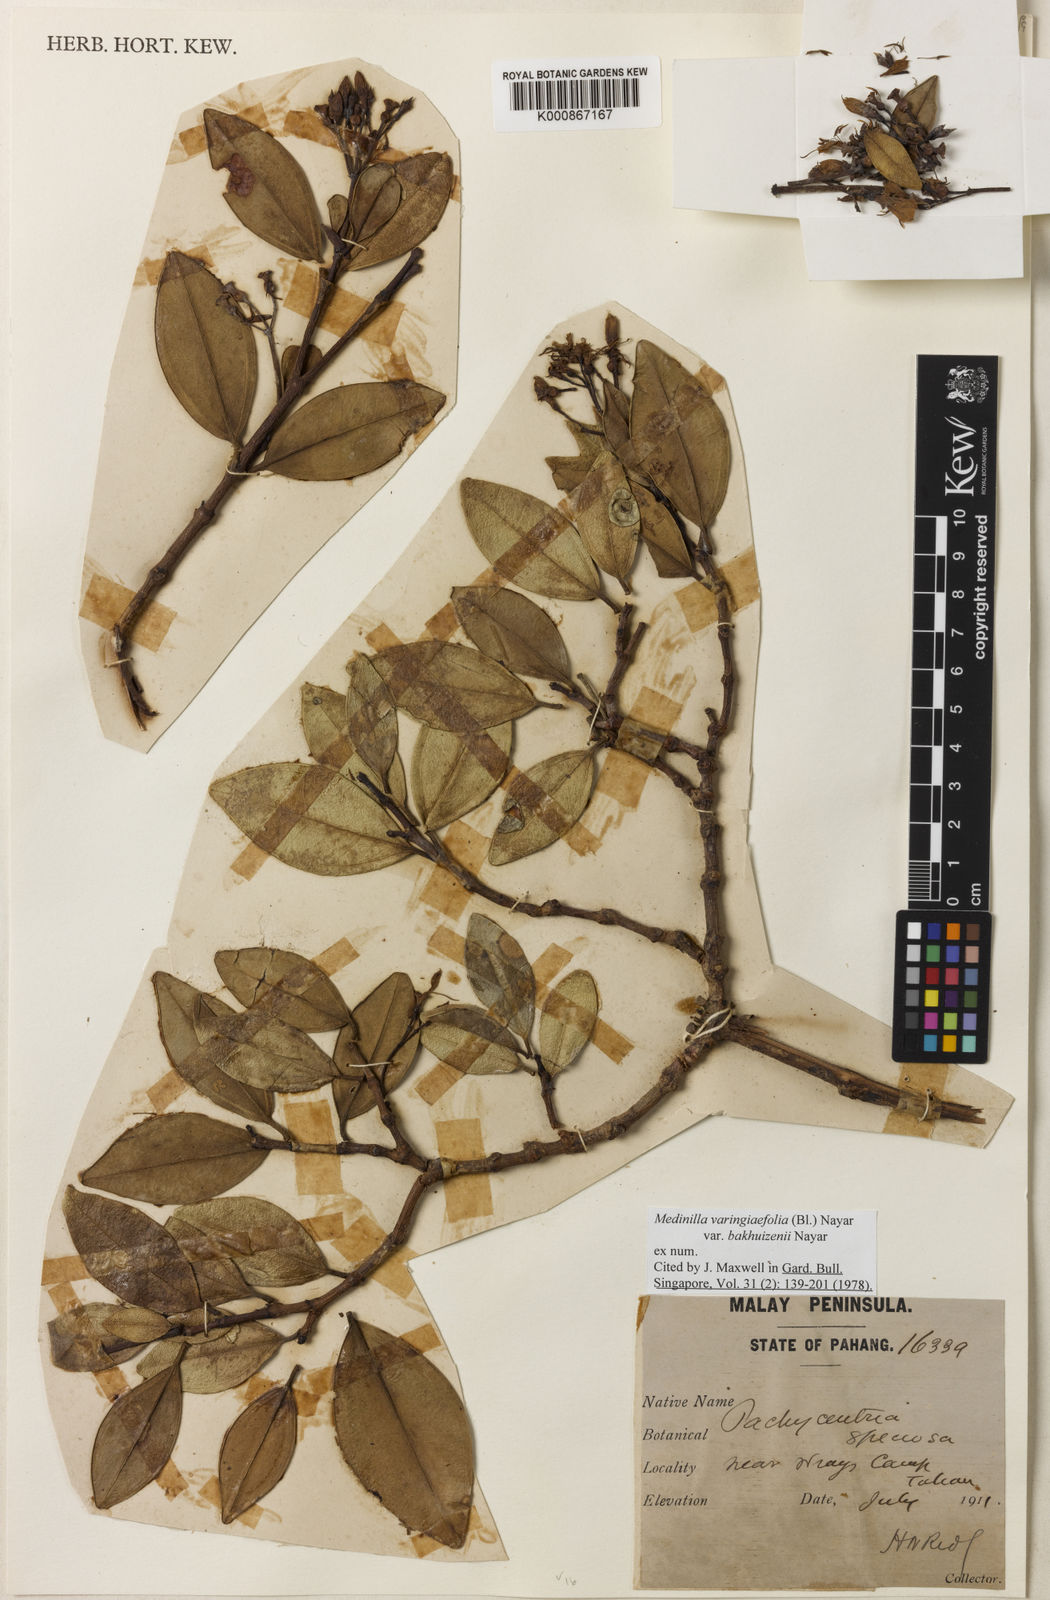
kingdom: Plantae
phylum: Tracheophyta
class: Magnoliopsida
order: Myrtales
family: Melastomataceae
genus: Pachycentria
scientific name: Pachycentria varingiaefolia
